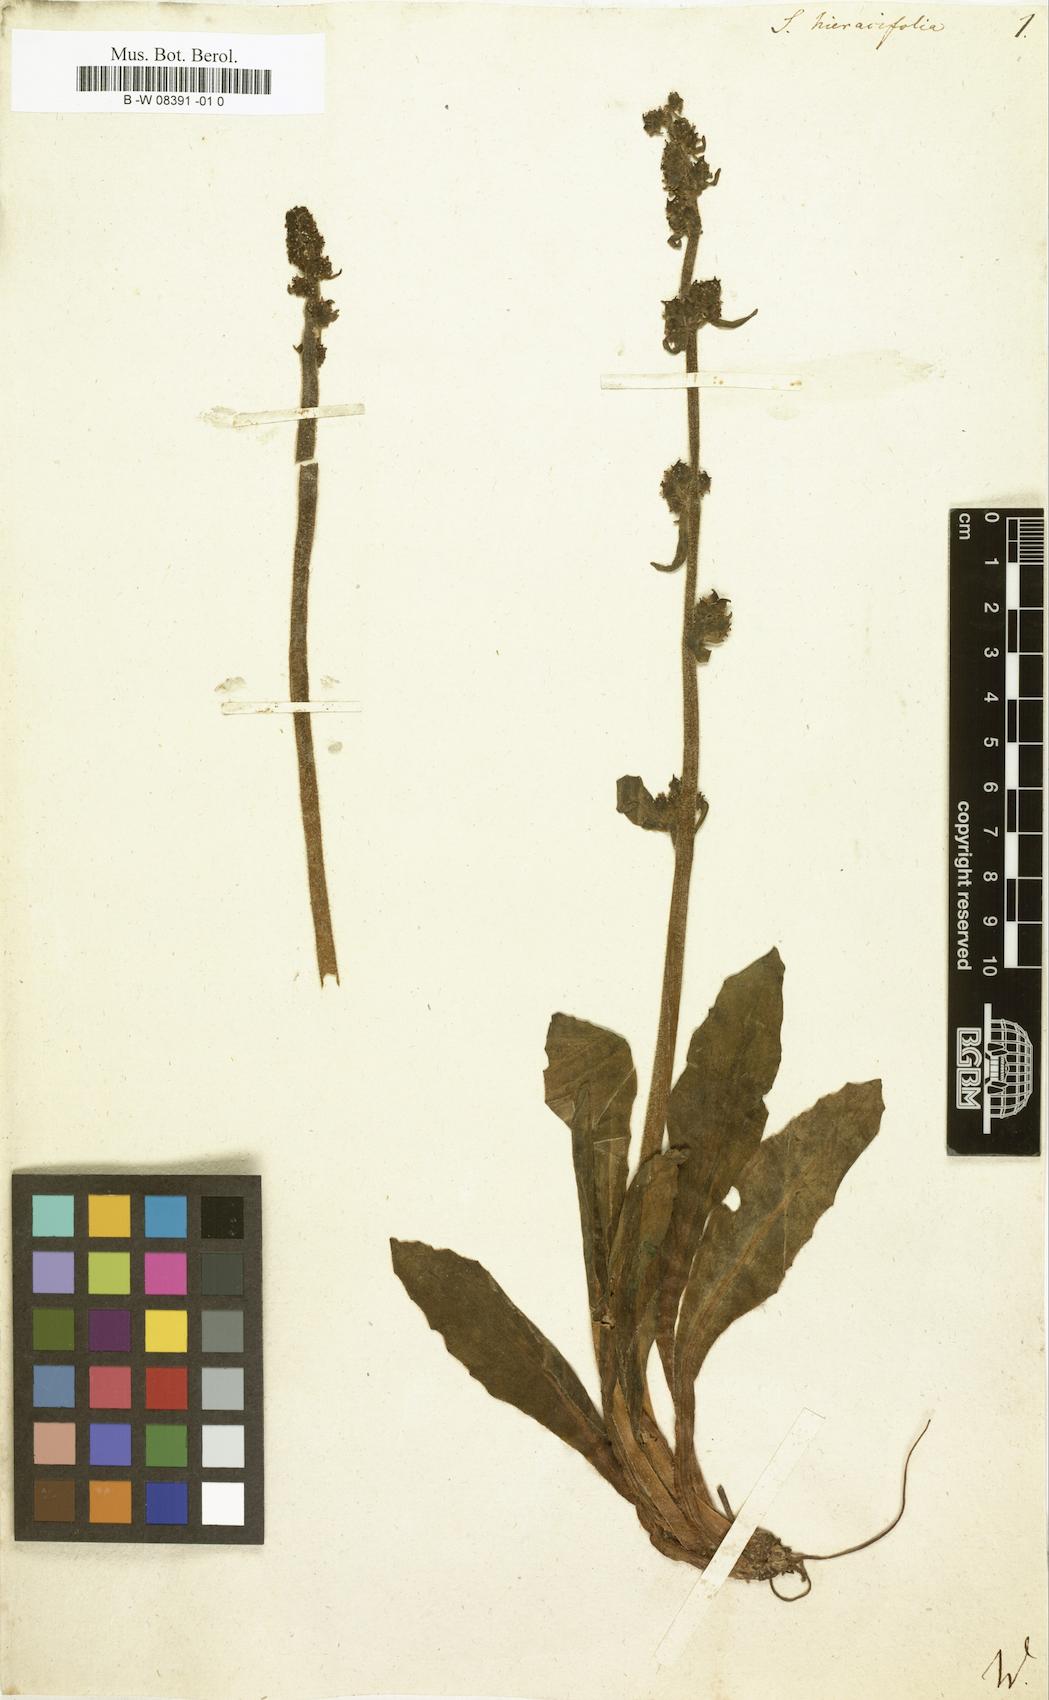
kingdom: Plantae
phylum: Tracheophyta
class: Magnoliopsida
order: Saxifragales
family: Saxifragaceae
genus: Micranthes
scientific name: Micranthes
